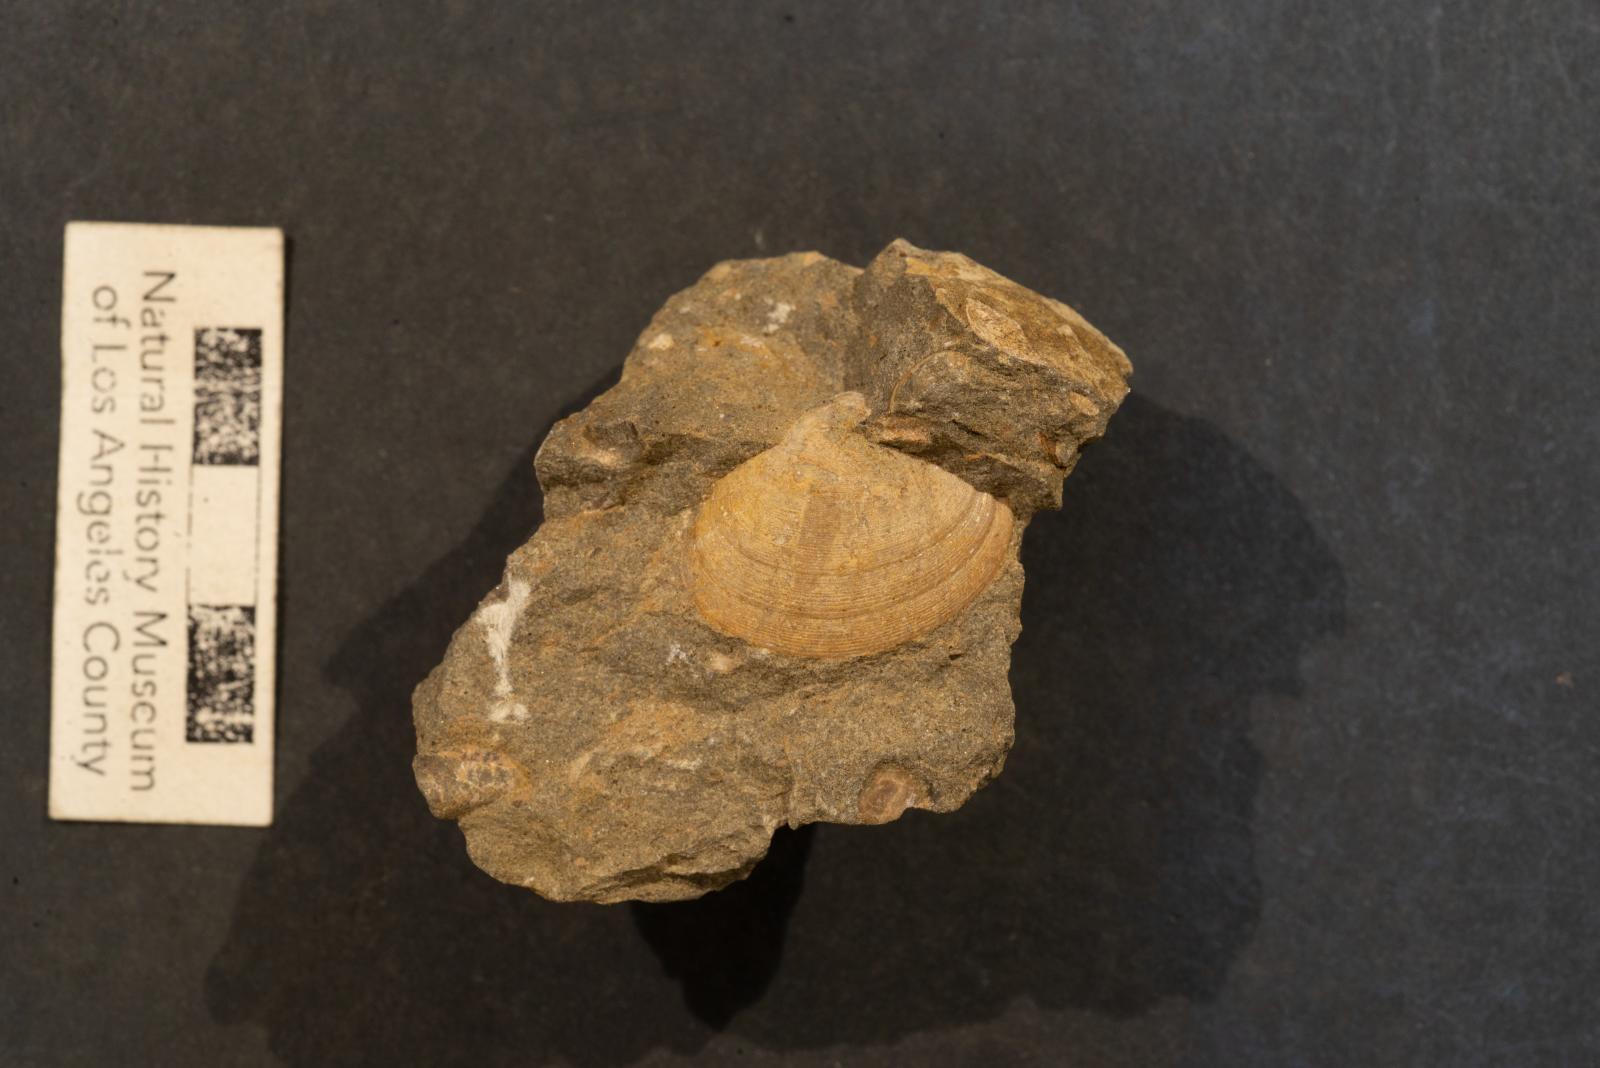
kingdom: Animalia
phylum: Mollusca
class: Bivalvia
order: Venerida
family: Veneridae
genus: Callistalox
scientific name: Callistalox Meretrix arata
